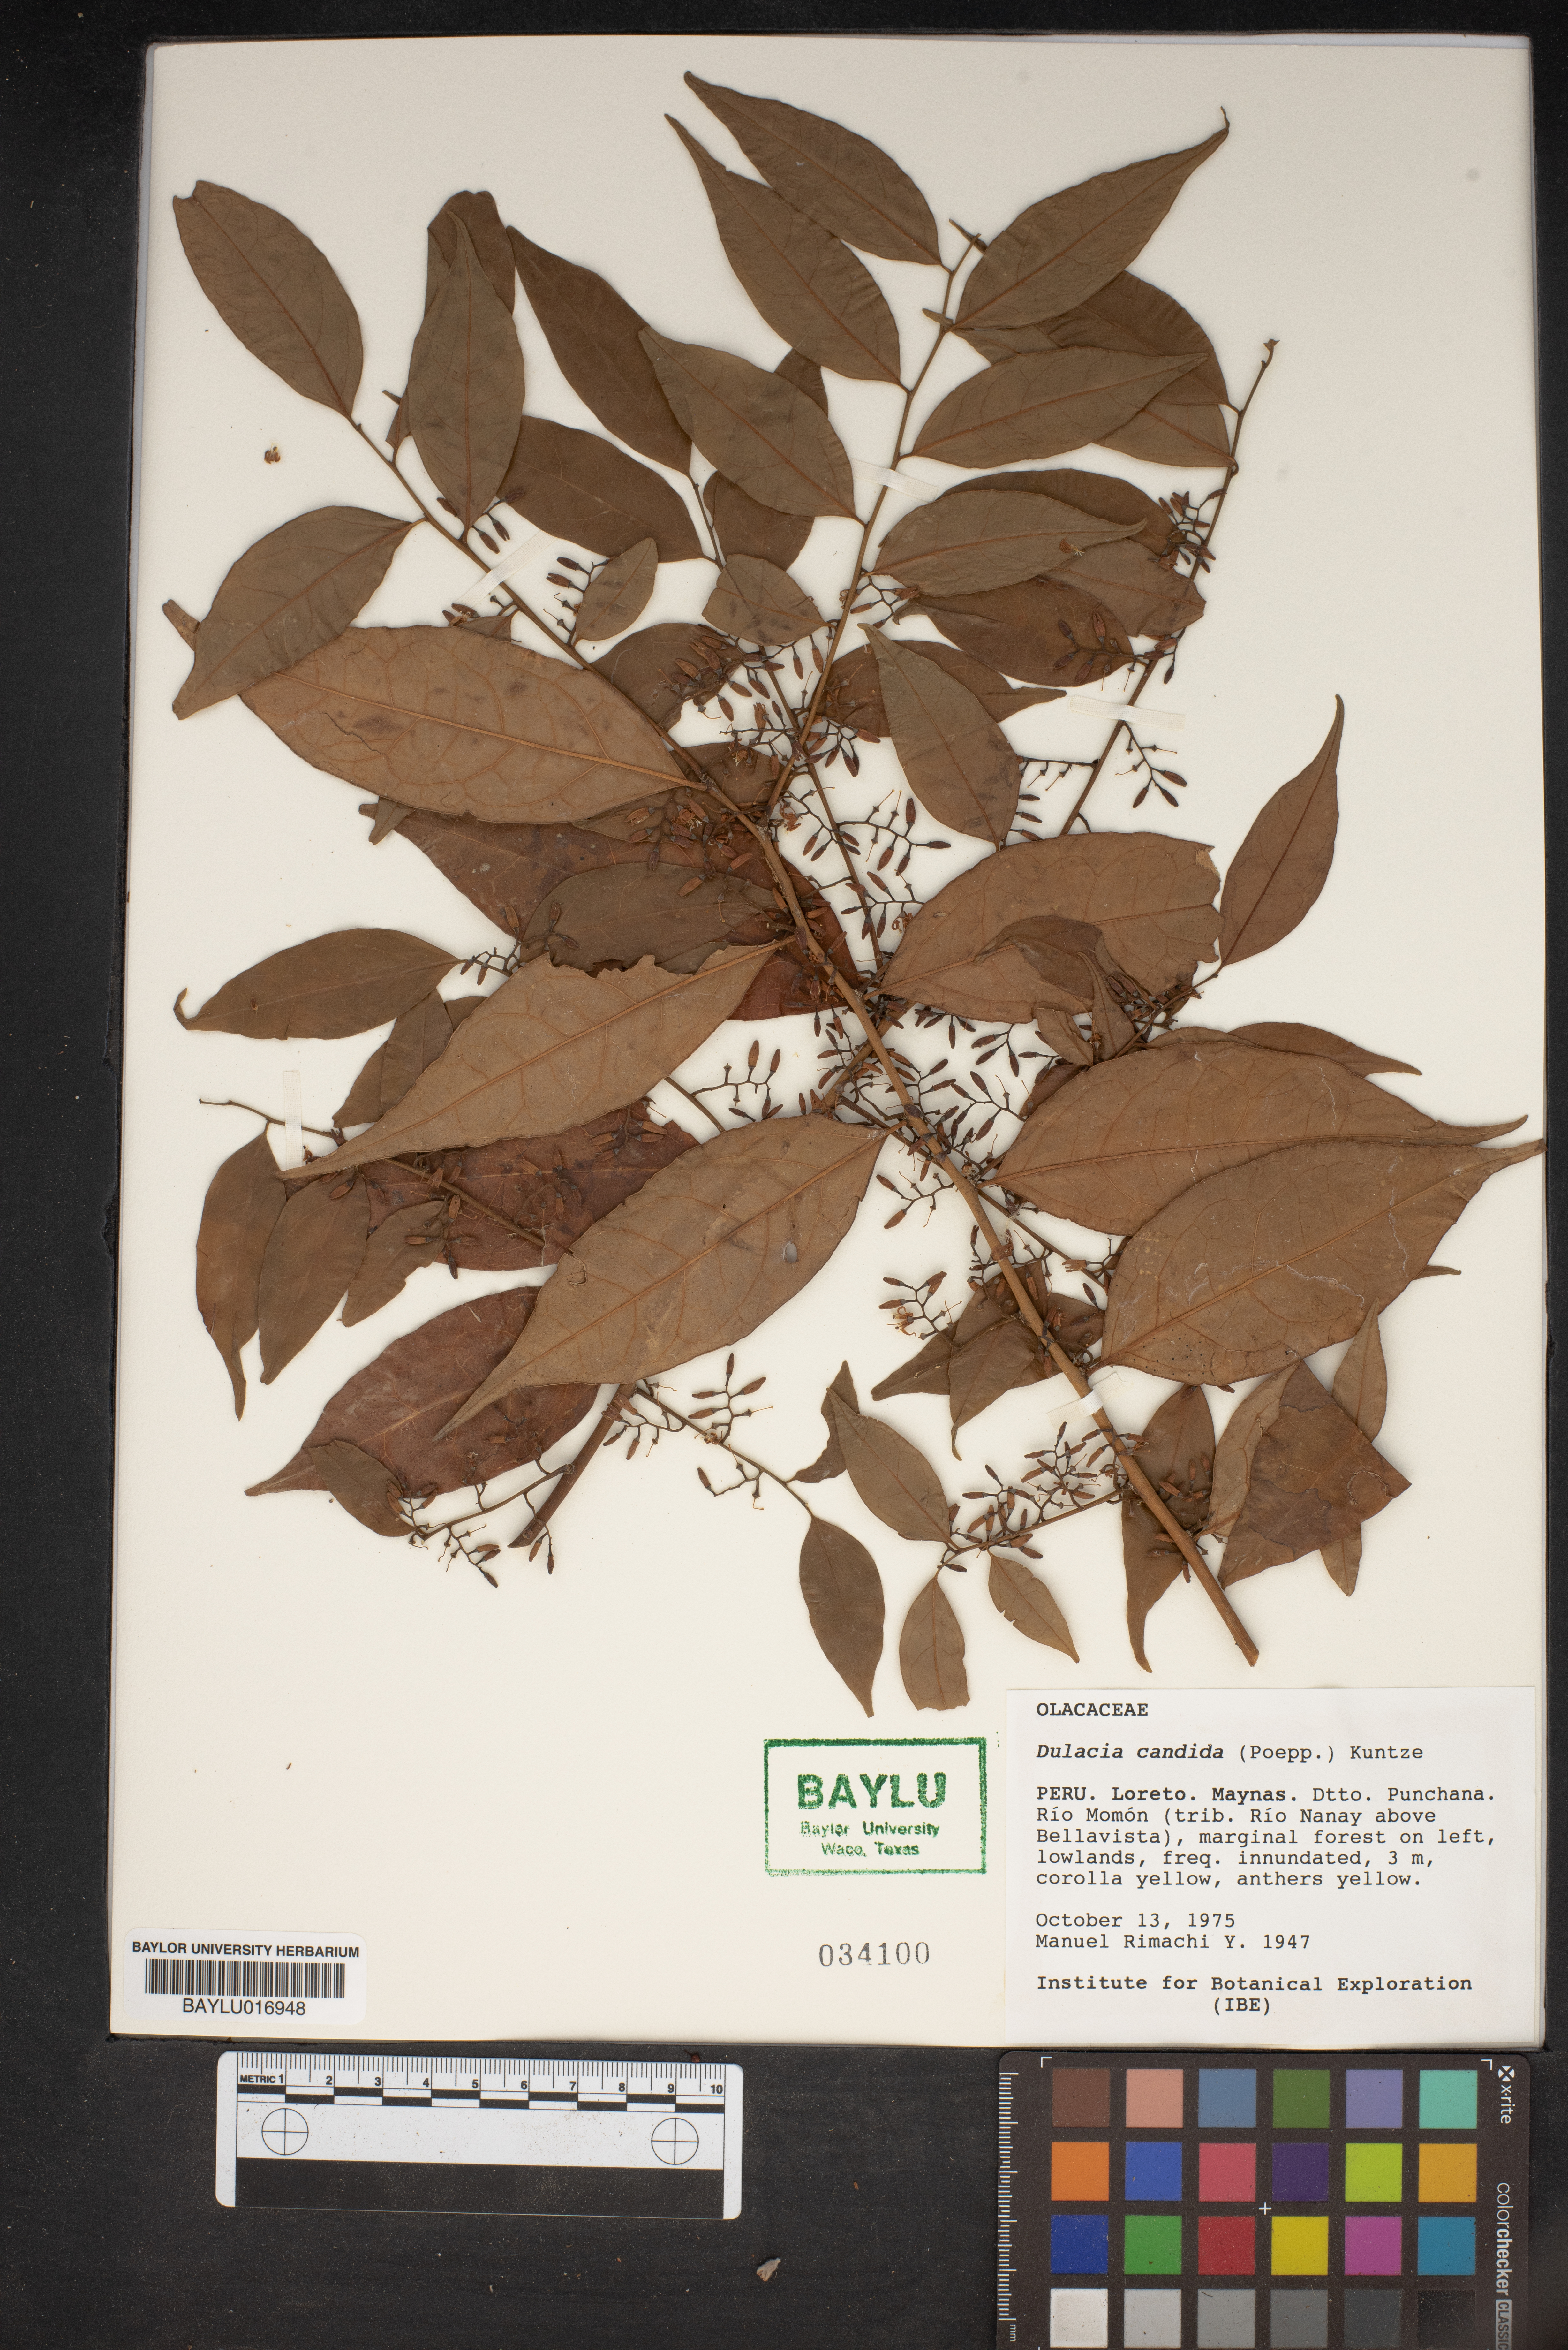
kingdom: Plantae
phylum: Tracheophyta
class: Magnoliopsida
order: Santalales
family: Olacaceae
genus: Dulacia
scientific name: Dulacia candida
